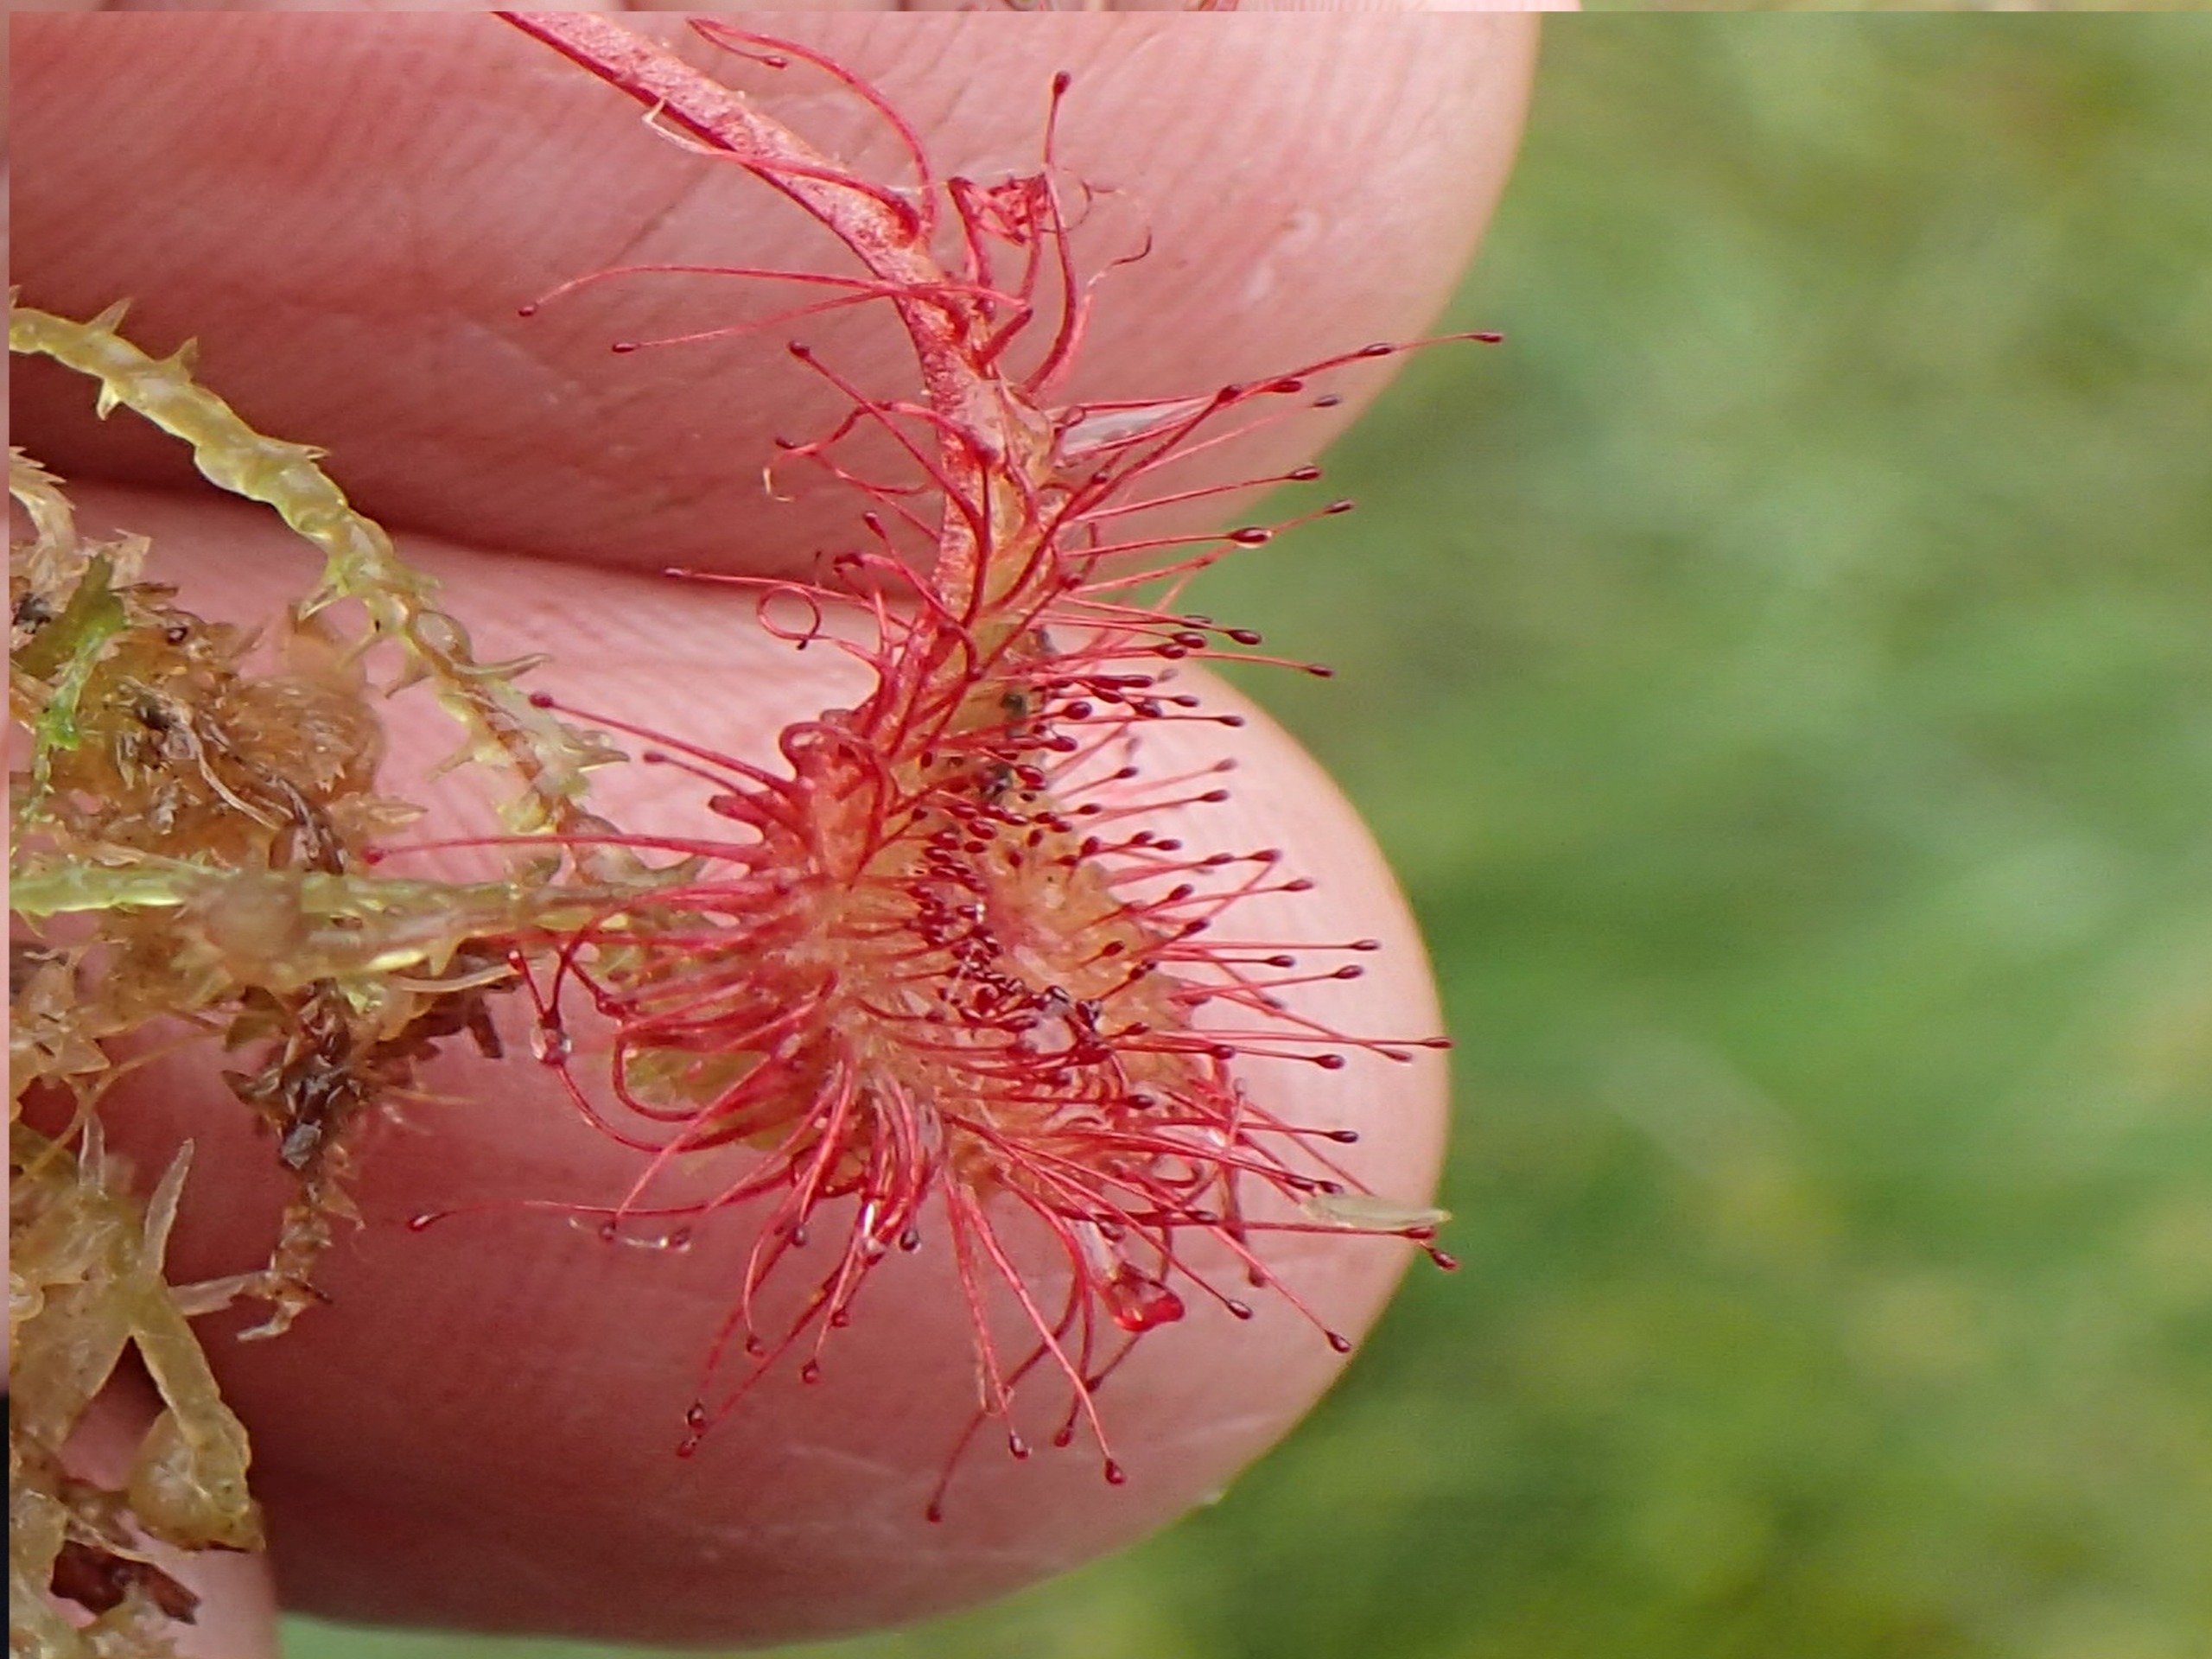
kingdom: Plantae
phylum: Tracheophyta
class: Magnoliopsida
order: Caryophyllales
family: Droseraceae
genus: Drosera
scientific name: Drosera rotundifolia
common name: Rundbladet soldug
